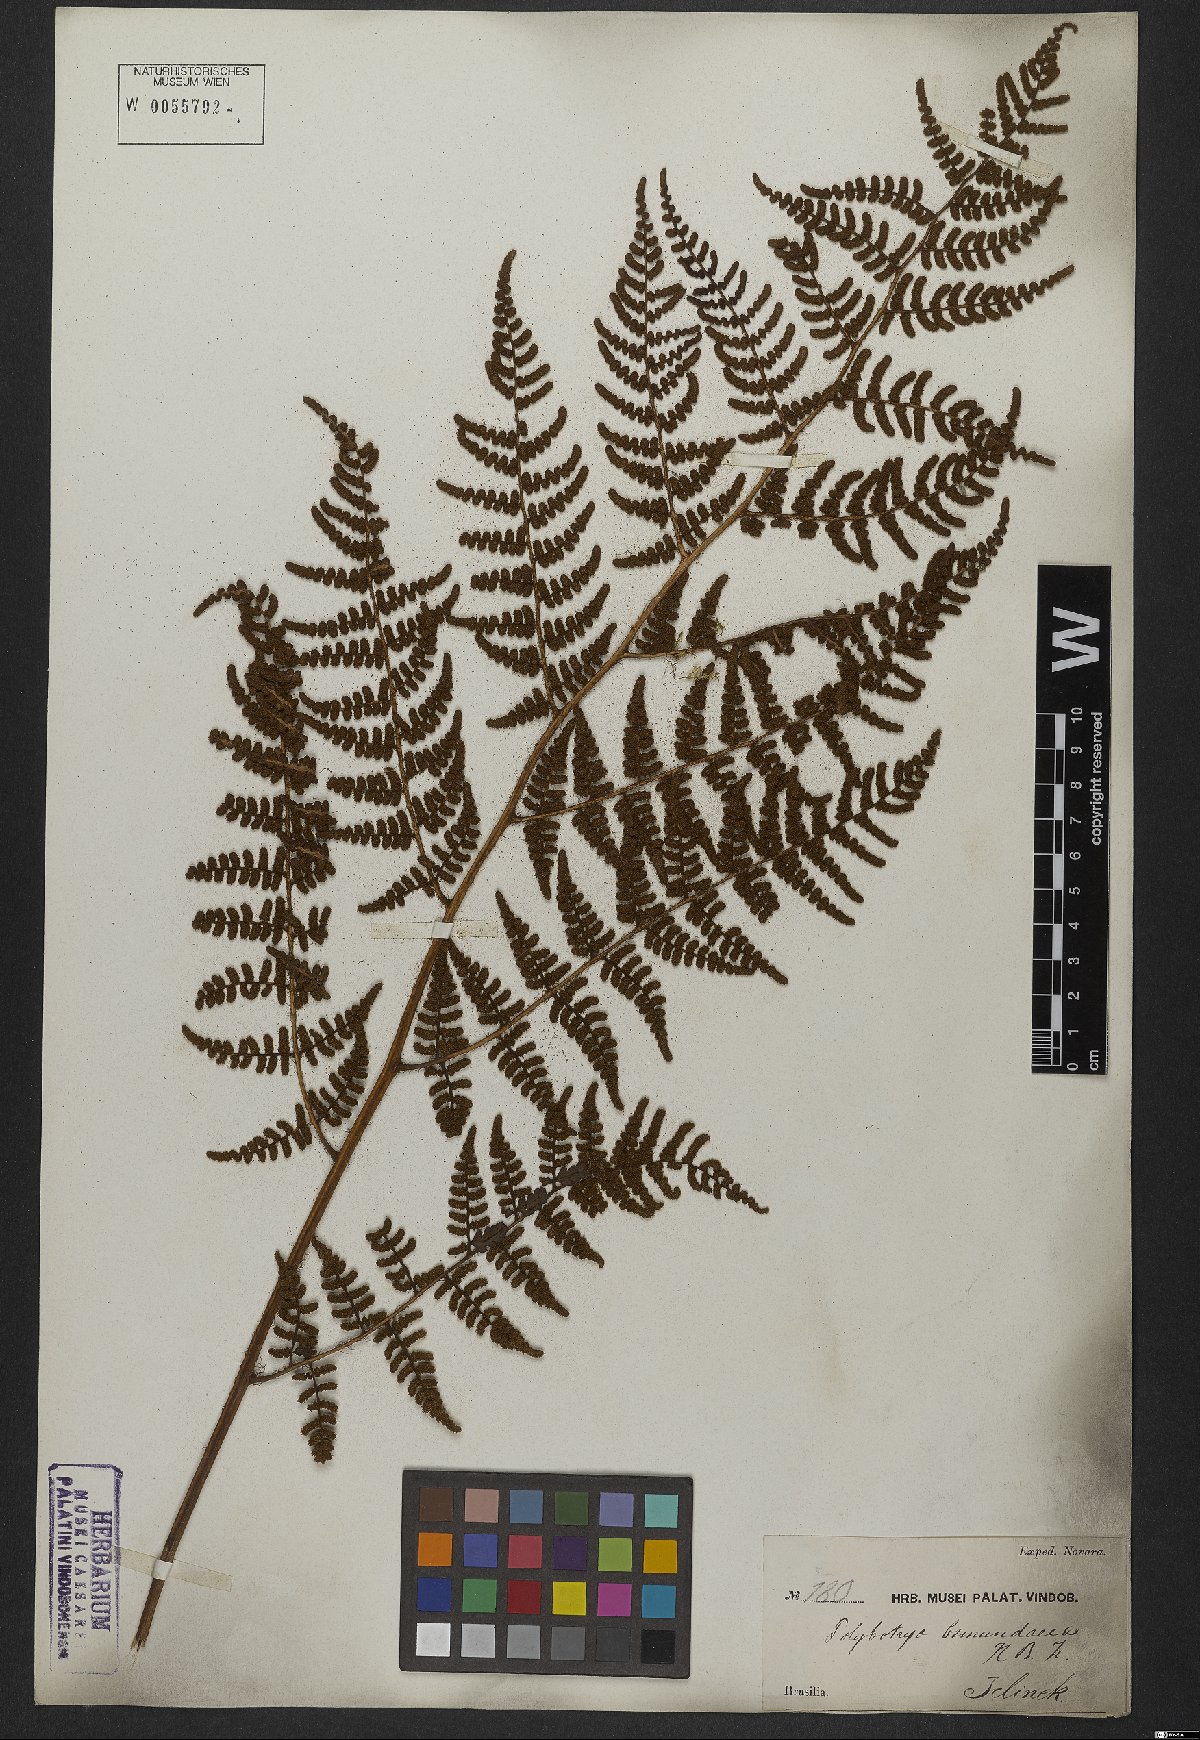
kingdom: Plantae
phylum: Tracheophyta
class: Polypodiopsida
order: Polypodiales
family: Dryopteridaceae
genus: Polybotrya
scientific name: Polybotrya osmundacea
